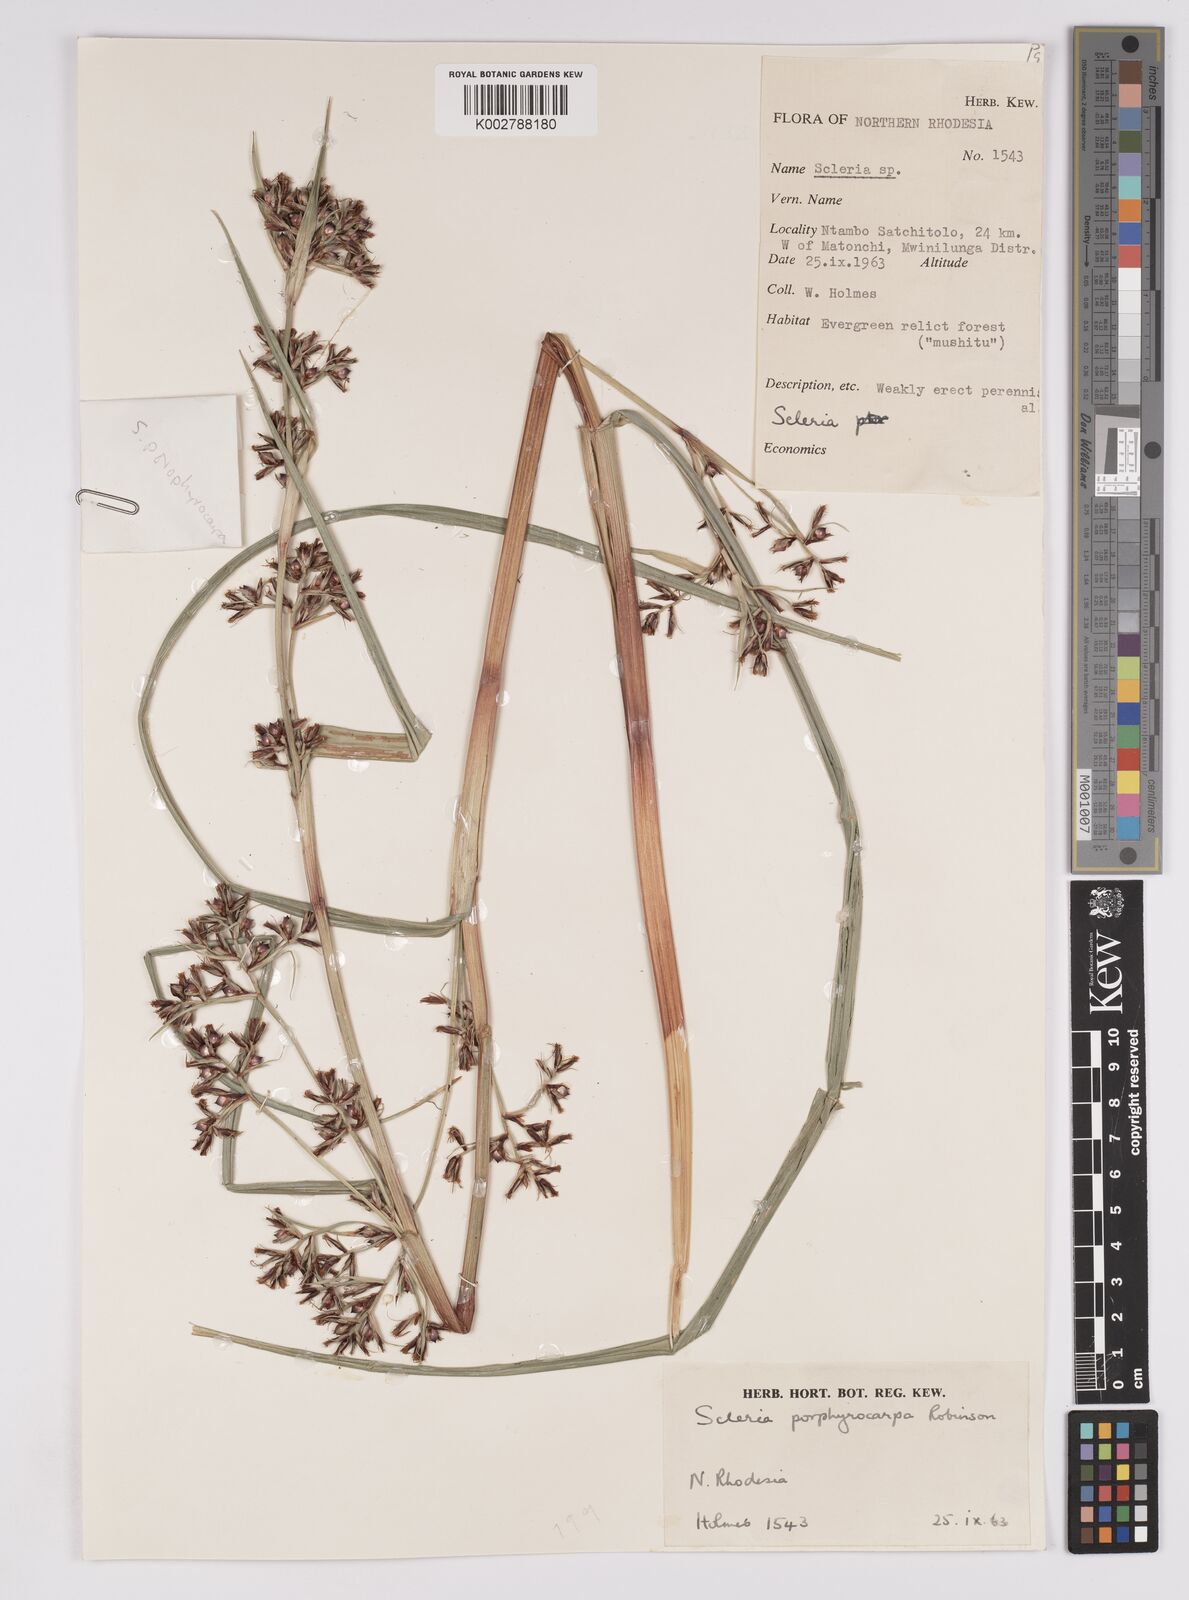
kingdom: Plantae
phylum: Tracheophyta
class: Liliopsida
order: Poales
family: Cyperaceae
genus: Scleria
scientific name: Scleria porphyrocarpa
